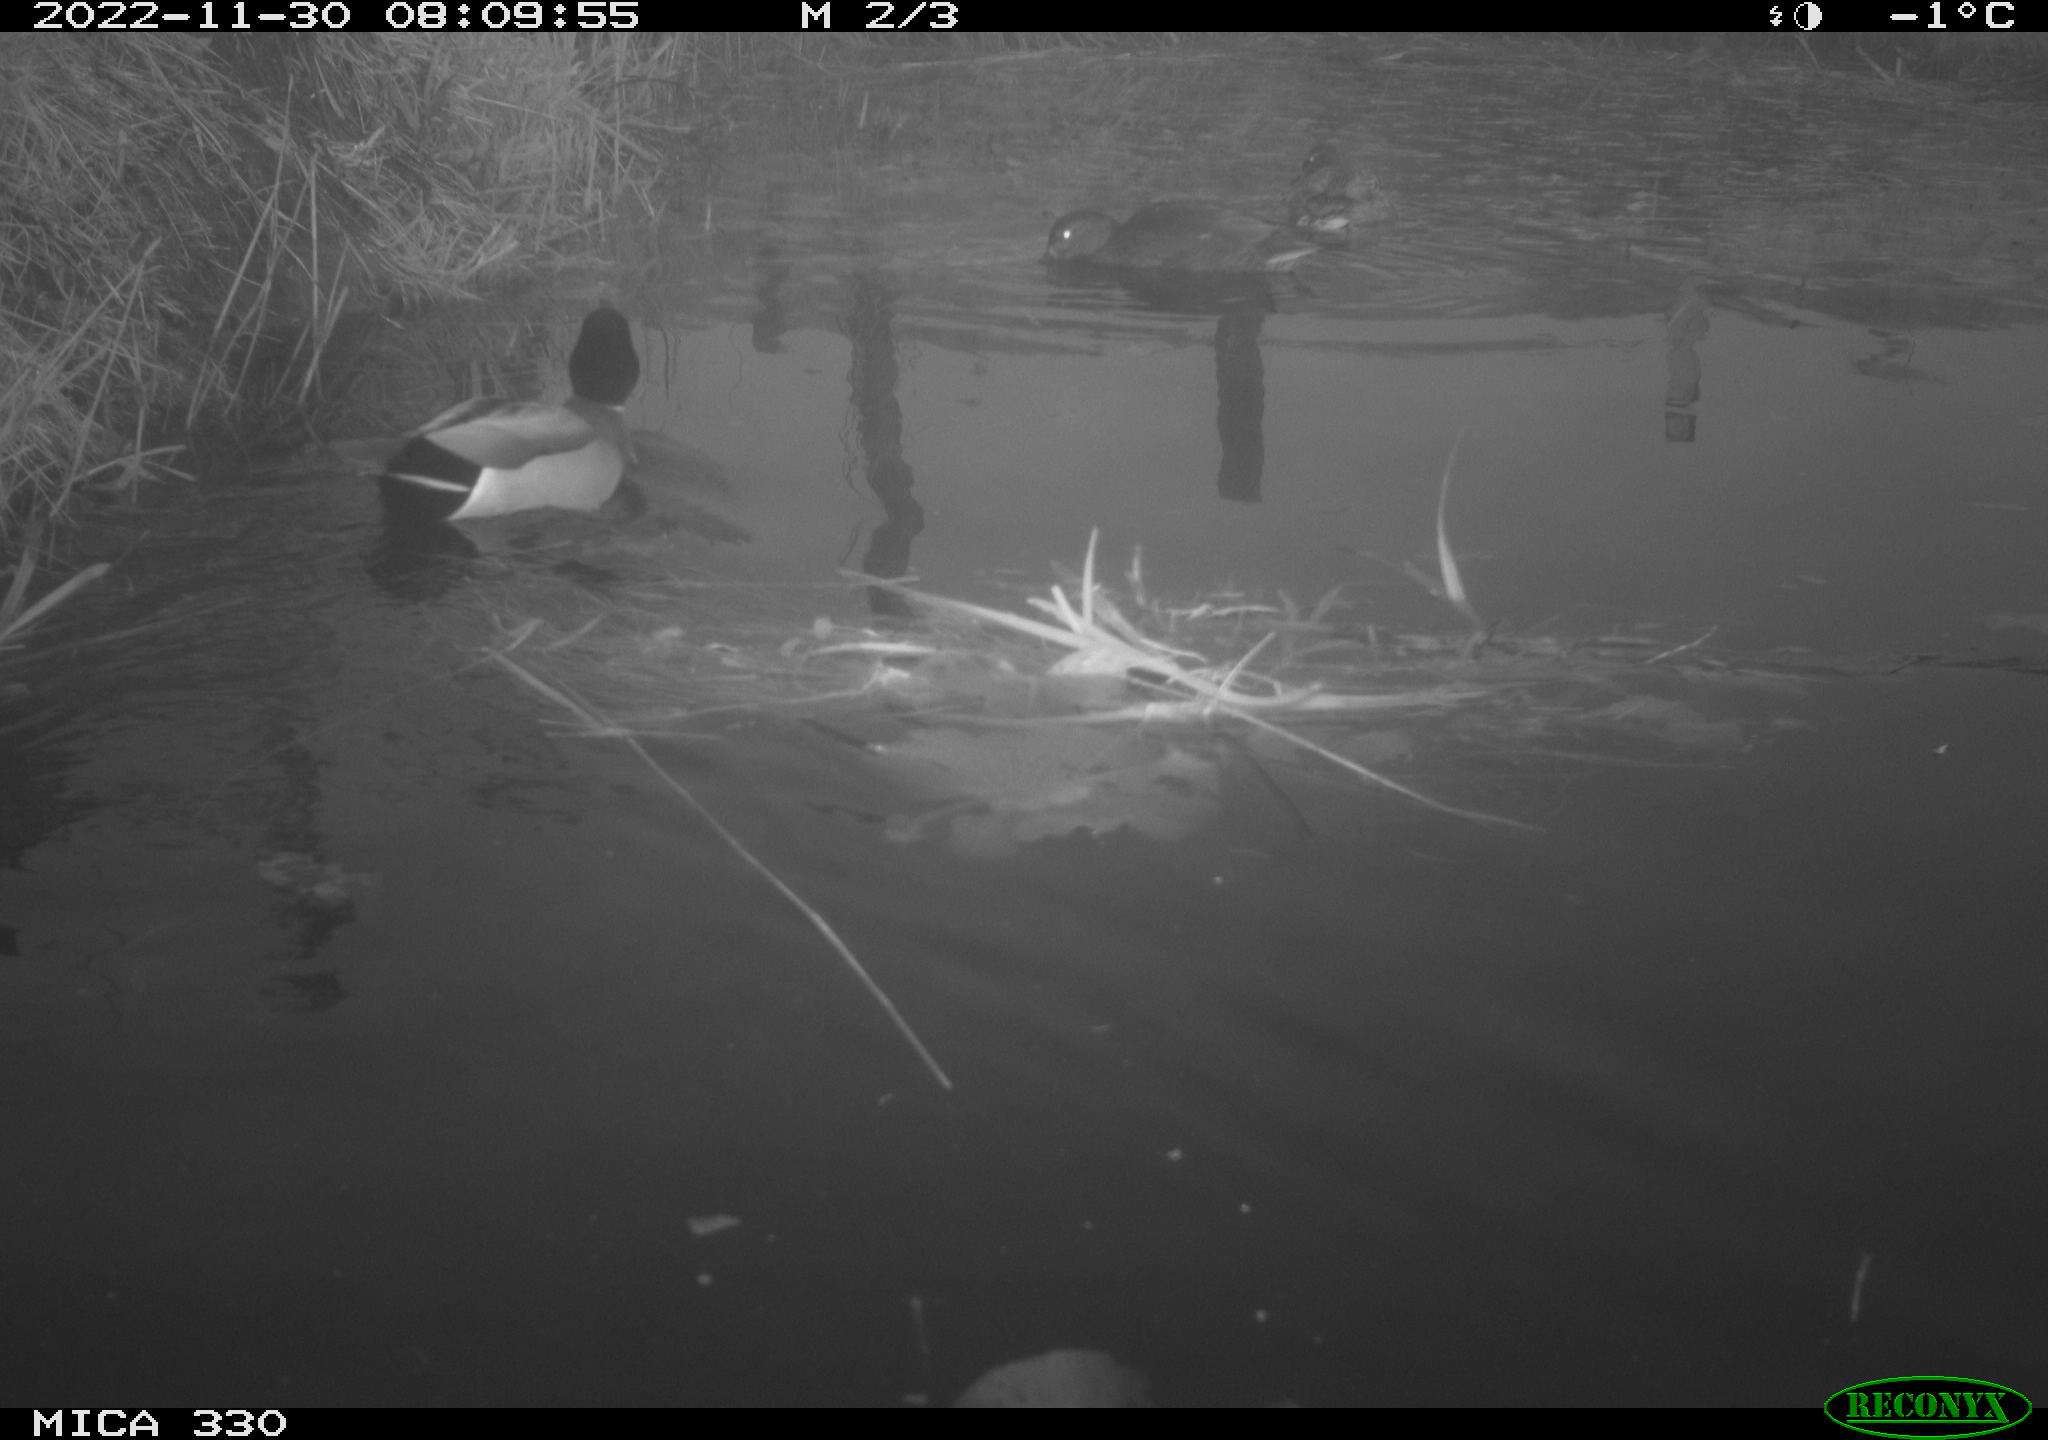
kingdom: Animalia
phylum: Chordata
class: Aves
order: Anseriformes
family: Anatidae
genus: Anas
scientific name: Anas
